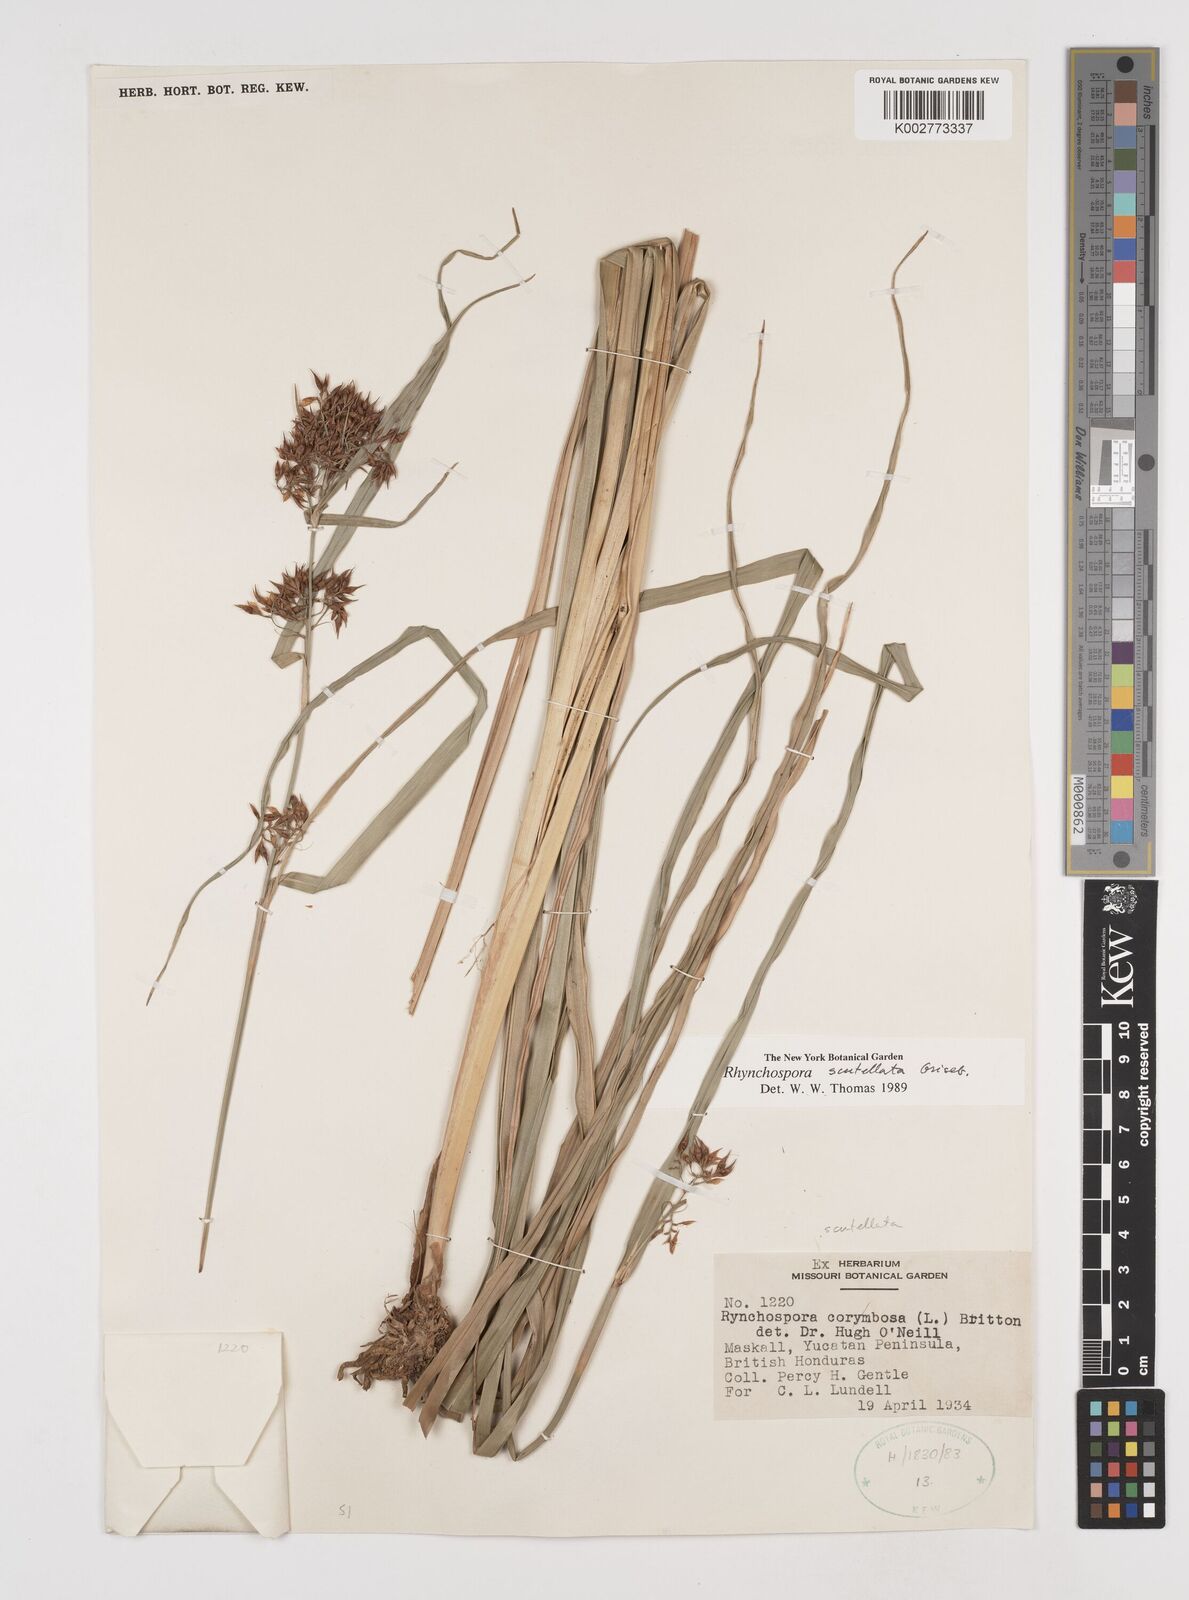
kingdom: Plantae
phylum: Tracheophyta
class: Liliopsida
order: Poales
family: Cyperaceae
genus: Rhynchospora
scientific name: Rhynchospora scutellata
